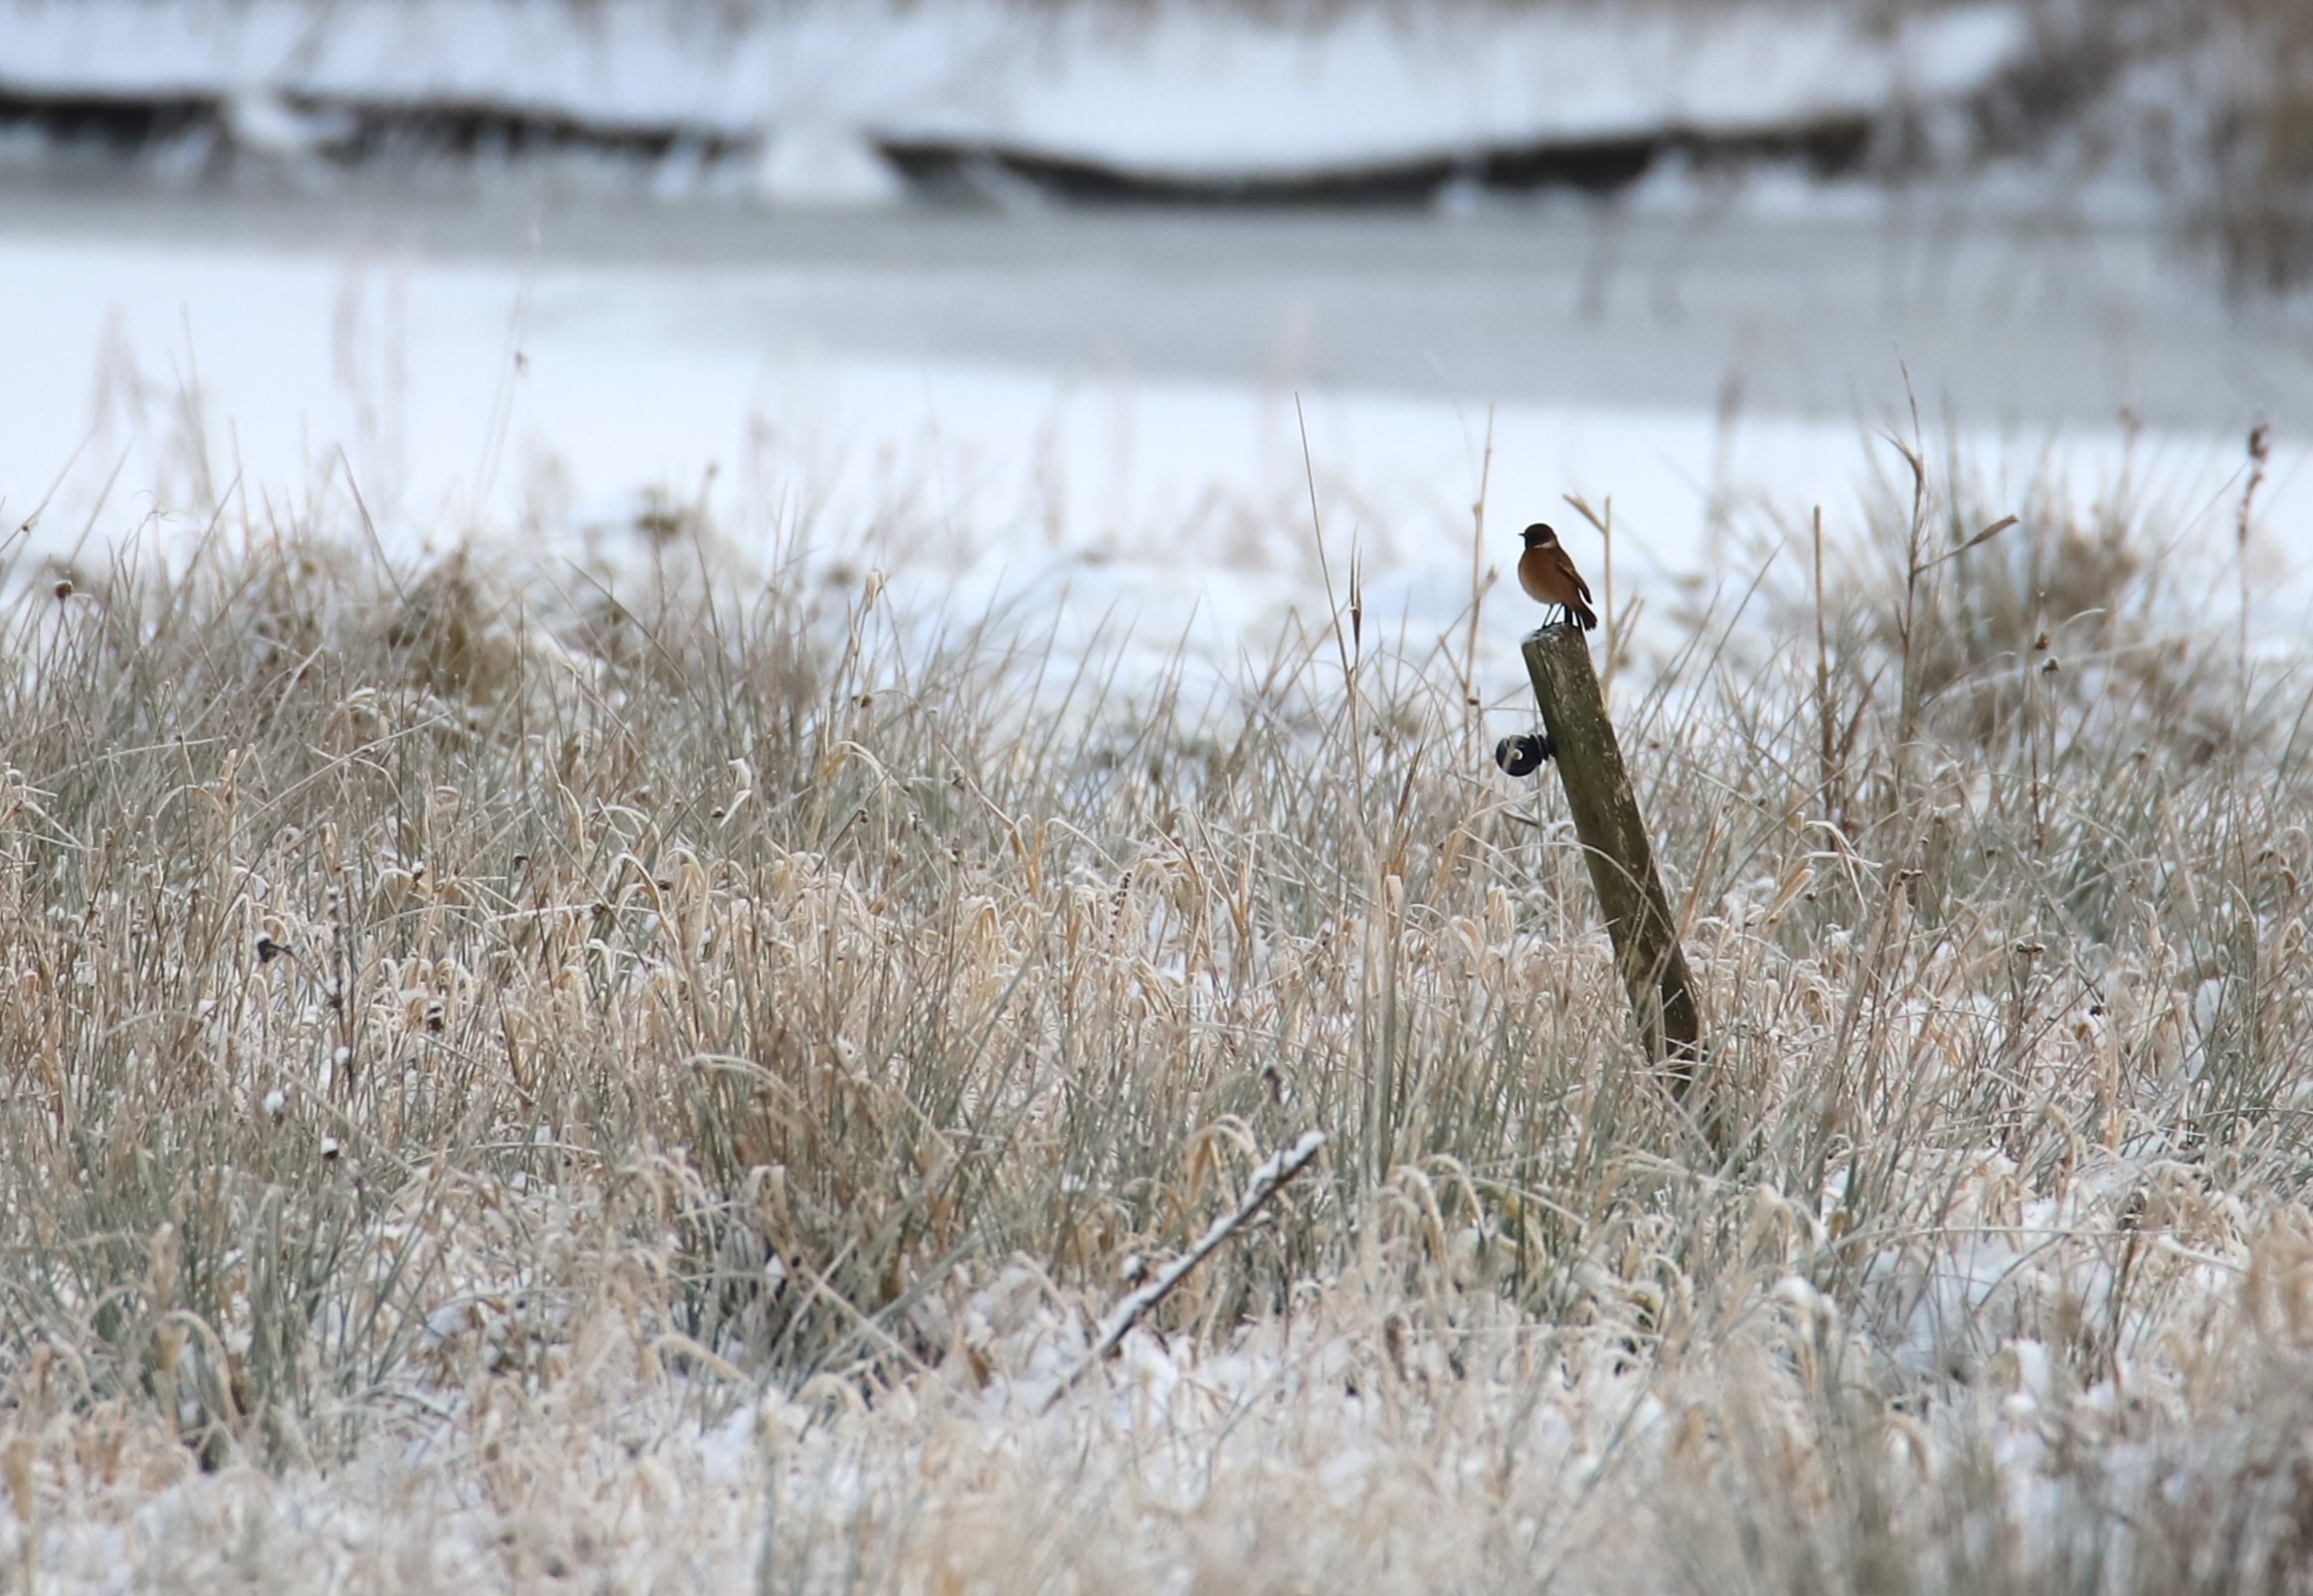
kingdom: Animalia
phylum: Chordata
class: Aves
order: Passeriformes
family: Muscicapidae
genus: Saxicola
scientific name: Saxicola rubicola
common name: Sortstrubet bynkefugl
